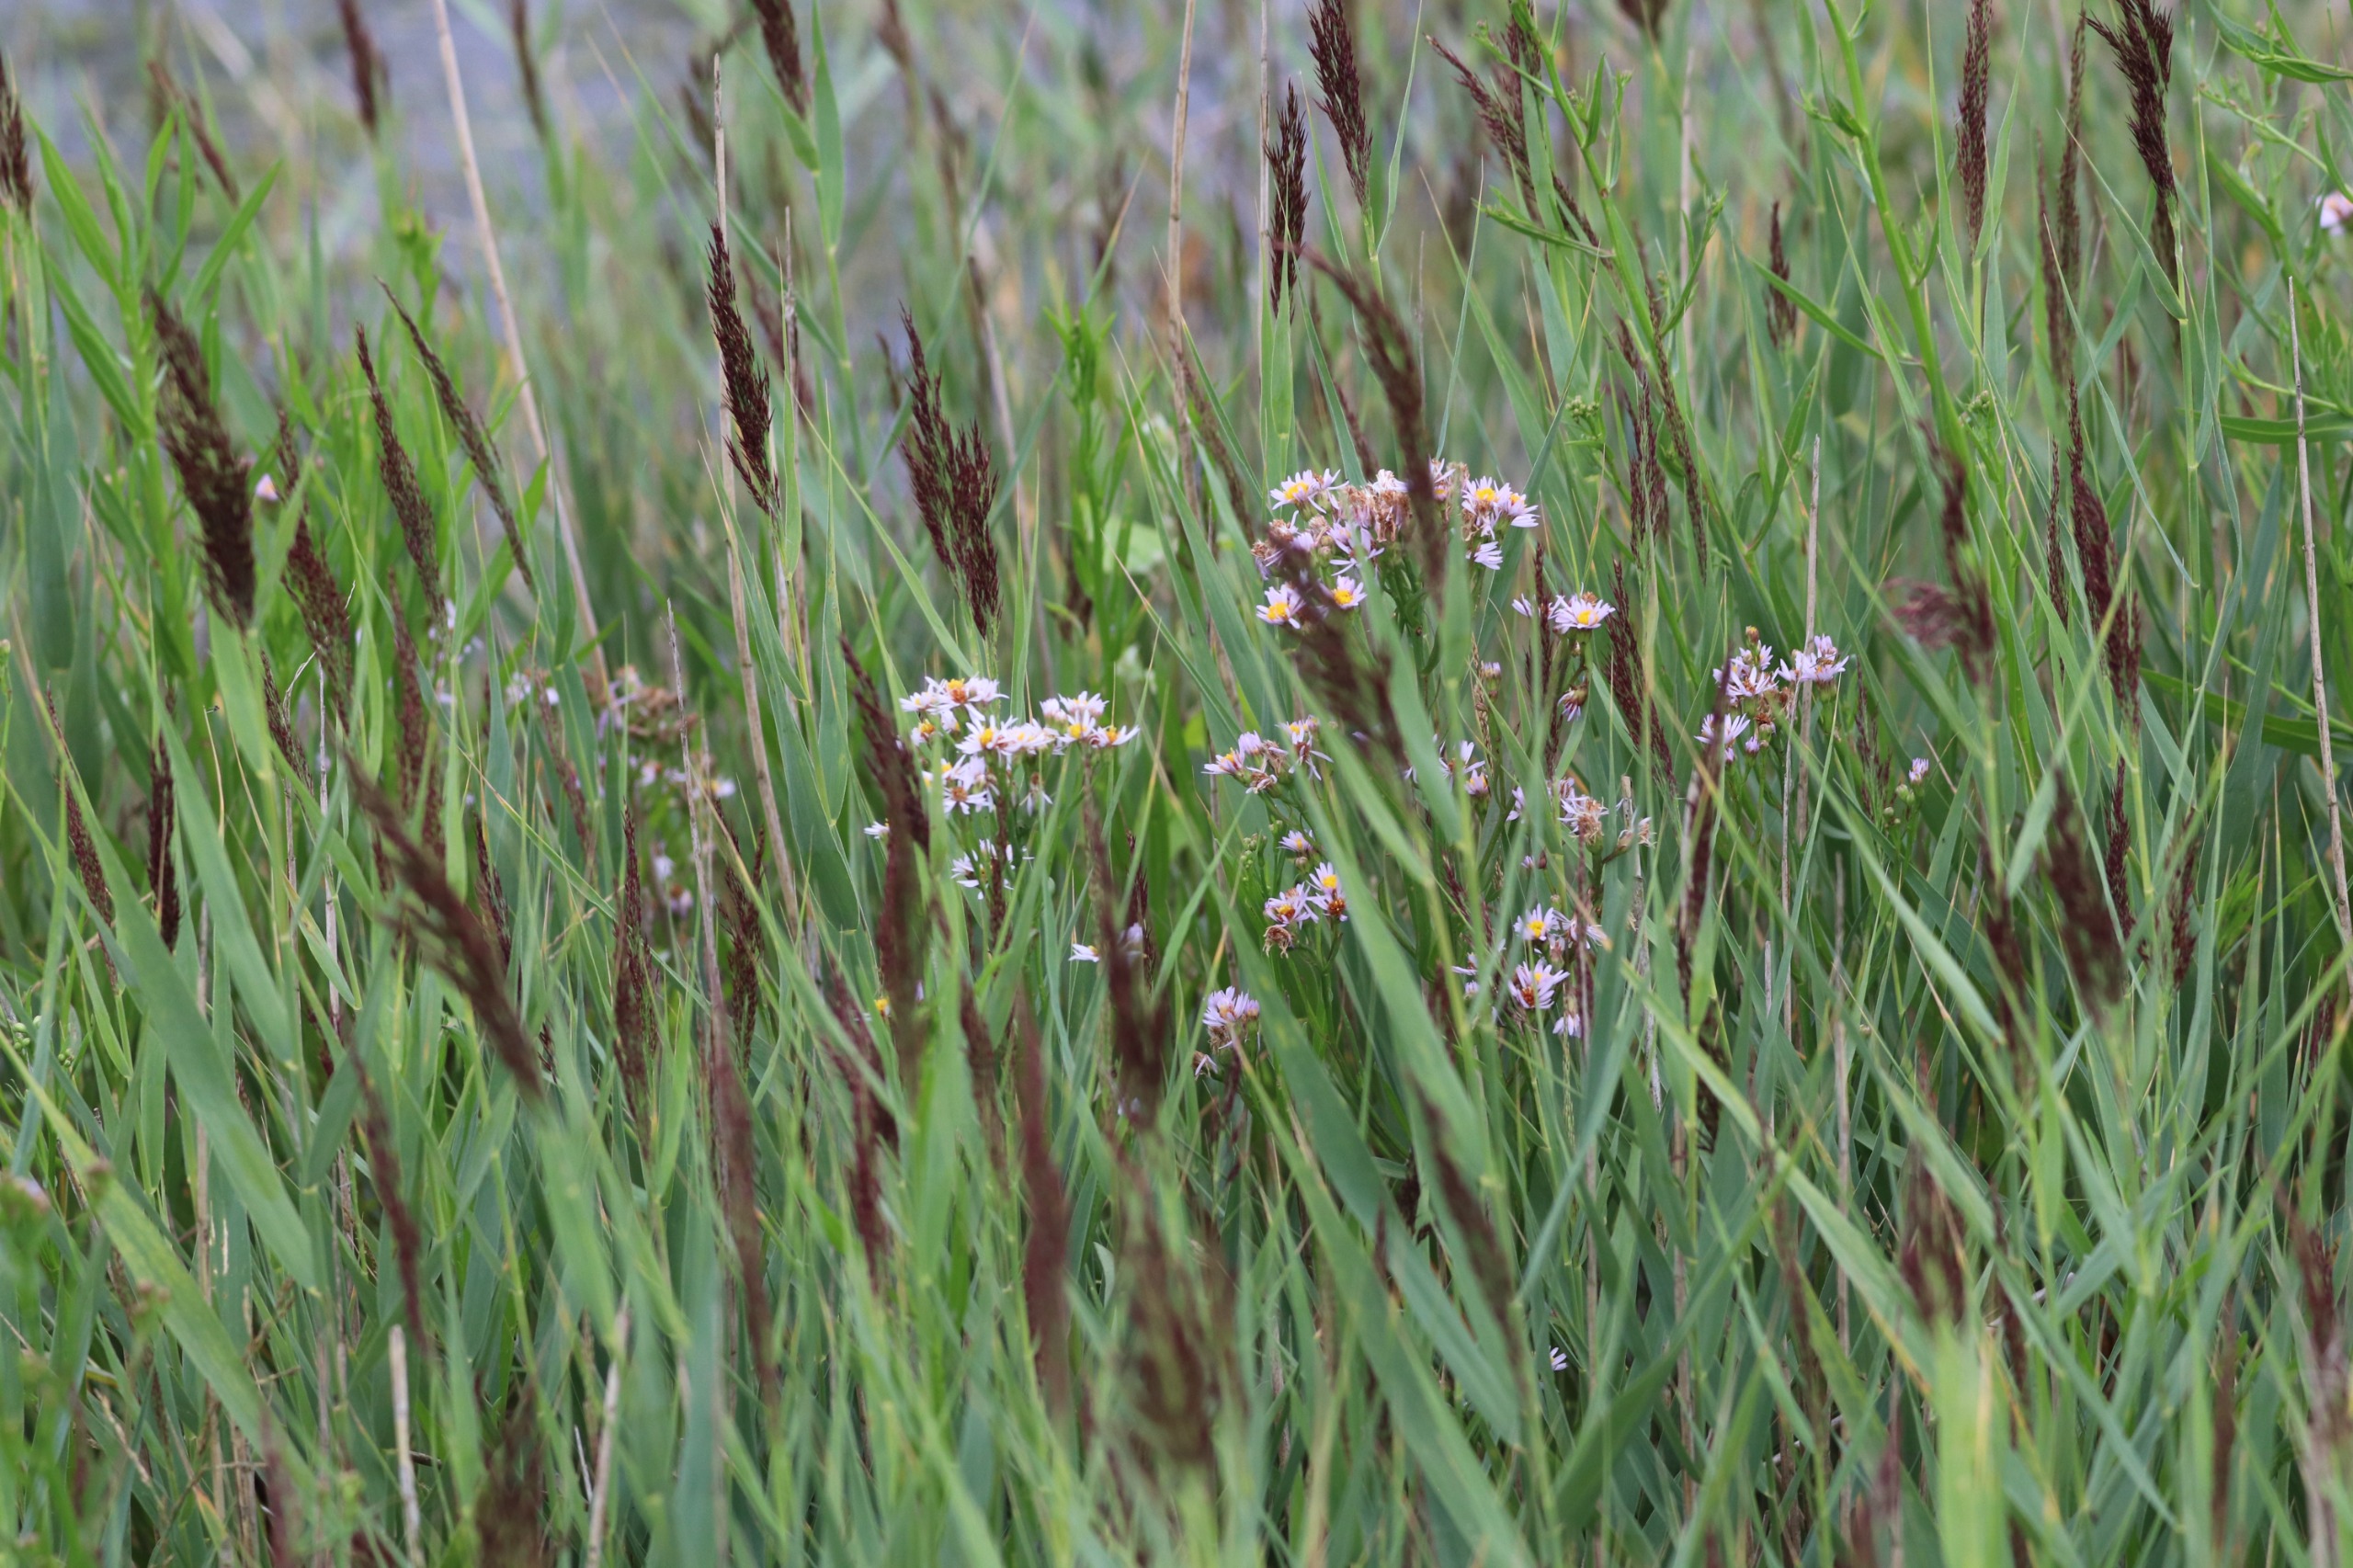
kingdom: Plantae
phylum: Tracheophyta
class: Magnoliopsida
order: Asterales
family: Asteraceae
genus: Tripolium
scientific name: Tripolium pannonicum
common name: Strandasters
